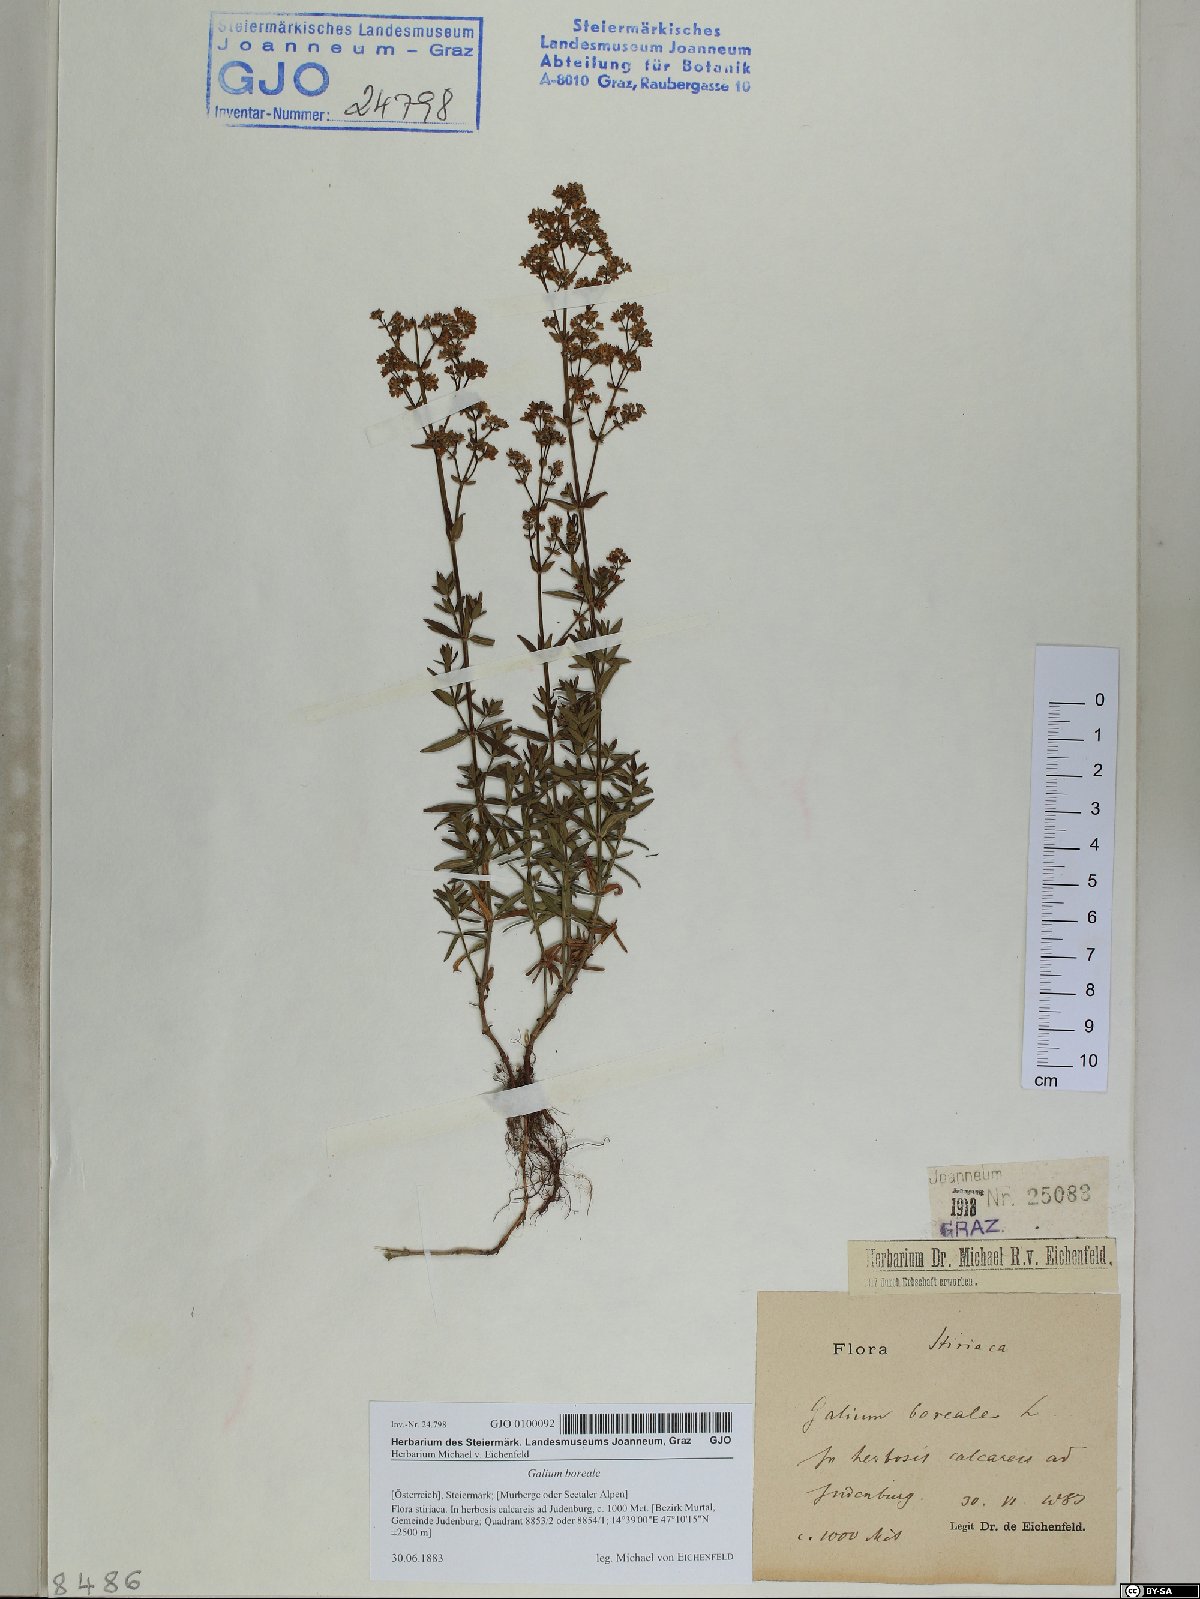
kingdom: Plantae
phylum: Tracheophyta
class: Magnoliopsida
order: Gentianales
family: Rubiaceae
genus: Galium
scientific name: Galium boreale
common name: Northern bedstraw
